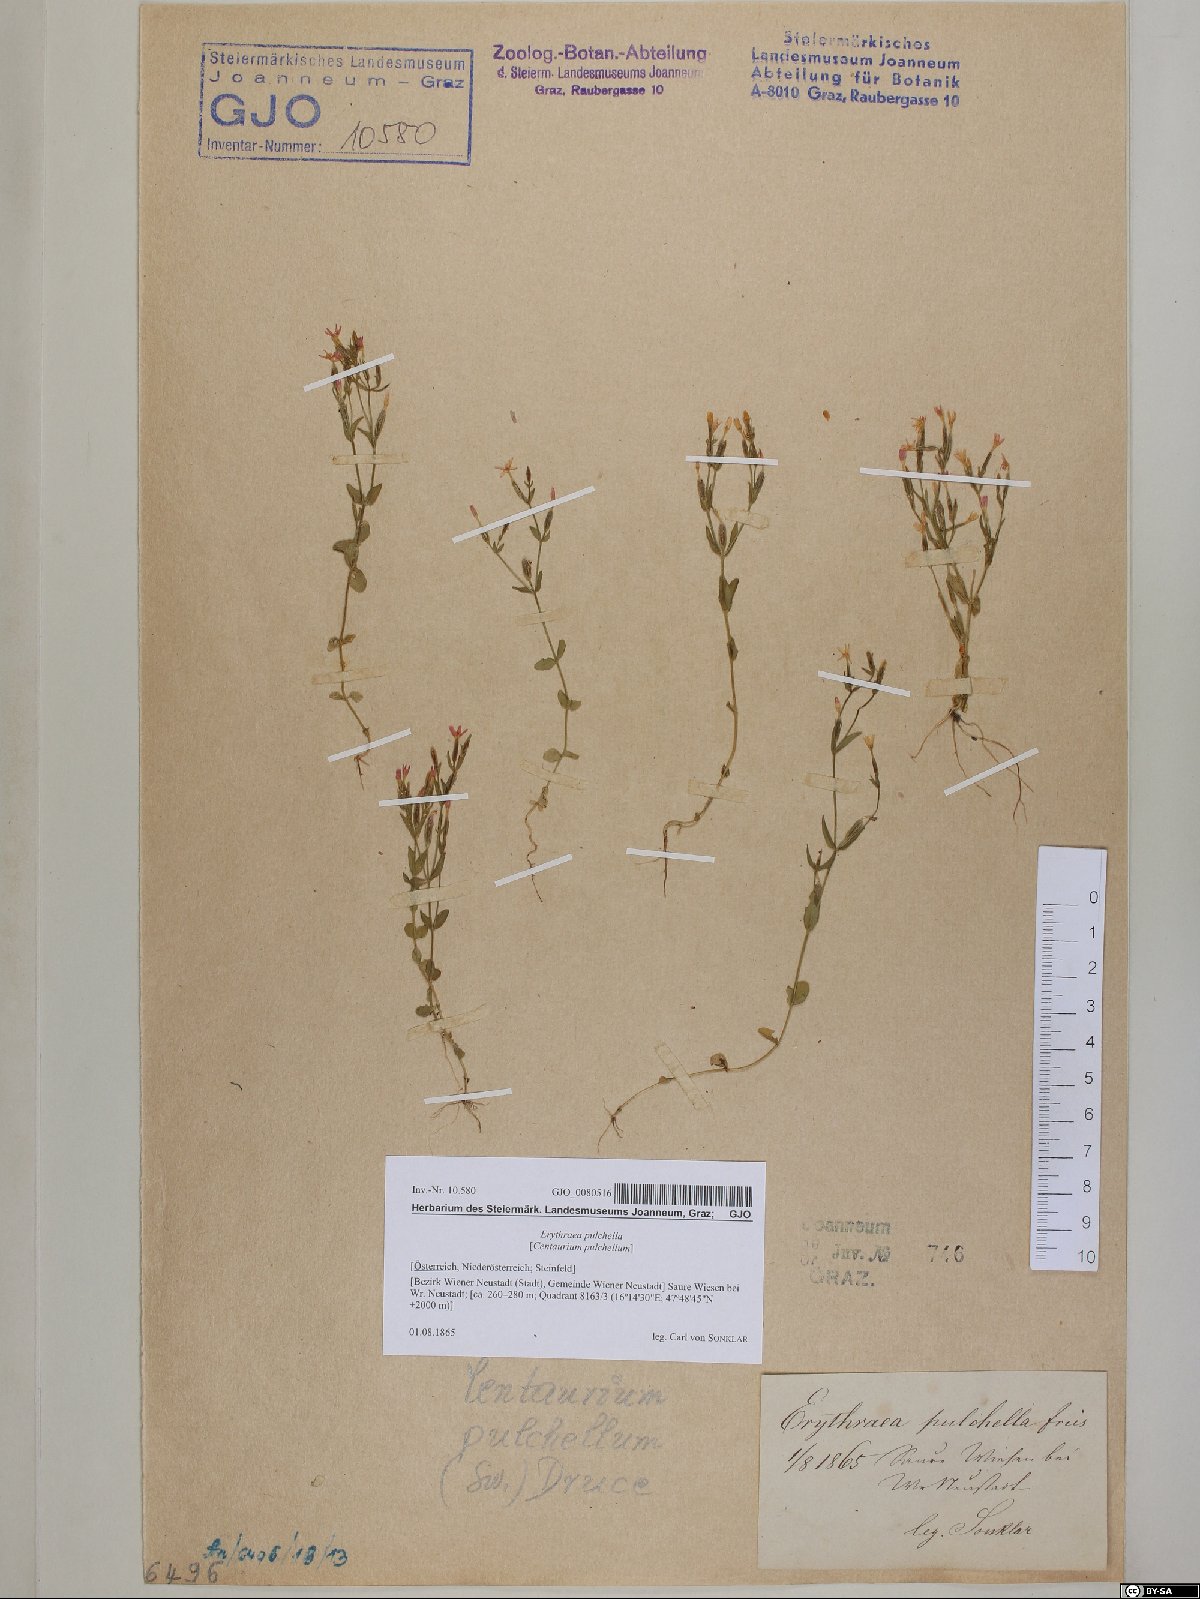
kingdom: Plantae
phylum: Tracheophyta
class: Magnoliopsida
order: Gentianales
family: Gentianaceae
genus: Centaurium
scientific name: Centaurium pulchellum
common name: Lesser centaury
